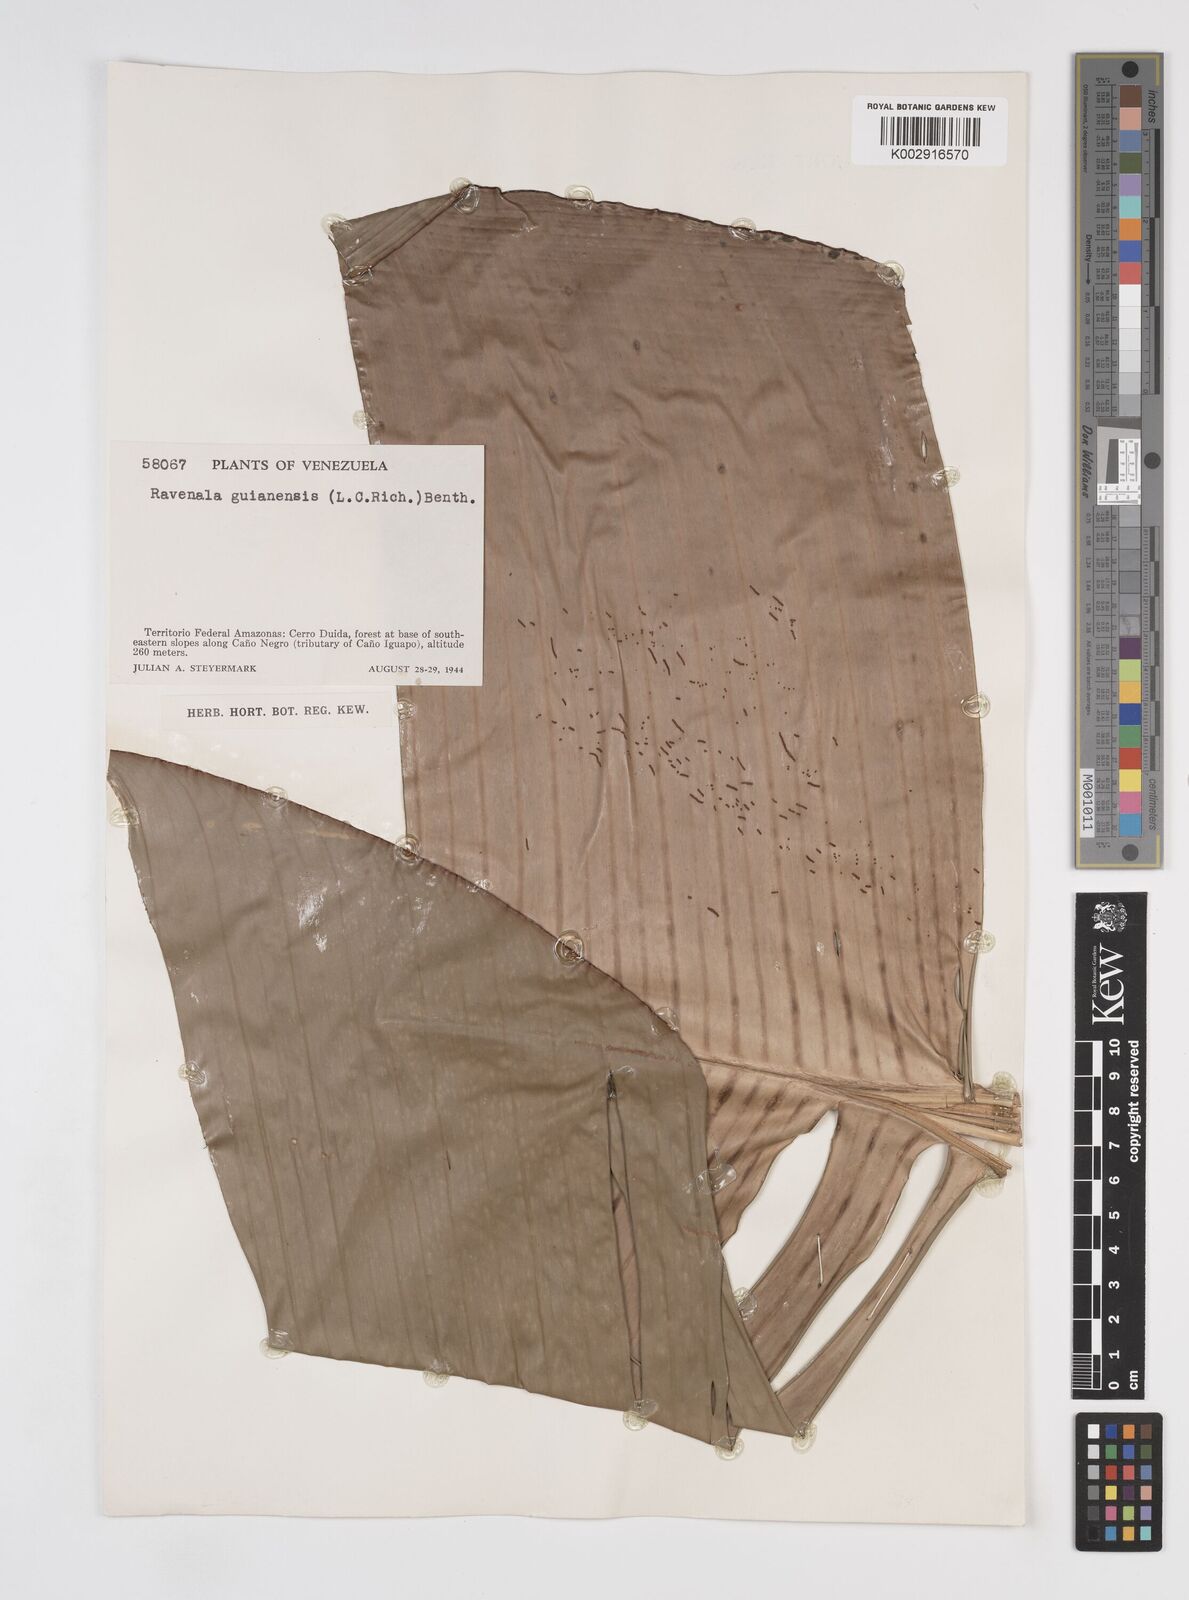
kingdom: Plantae
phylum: Tracheophyta
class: Liliopsida
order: Zingiberales
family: Strelitziaceae
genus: Phenakospermum
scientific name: Phenakospermum guyannense
